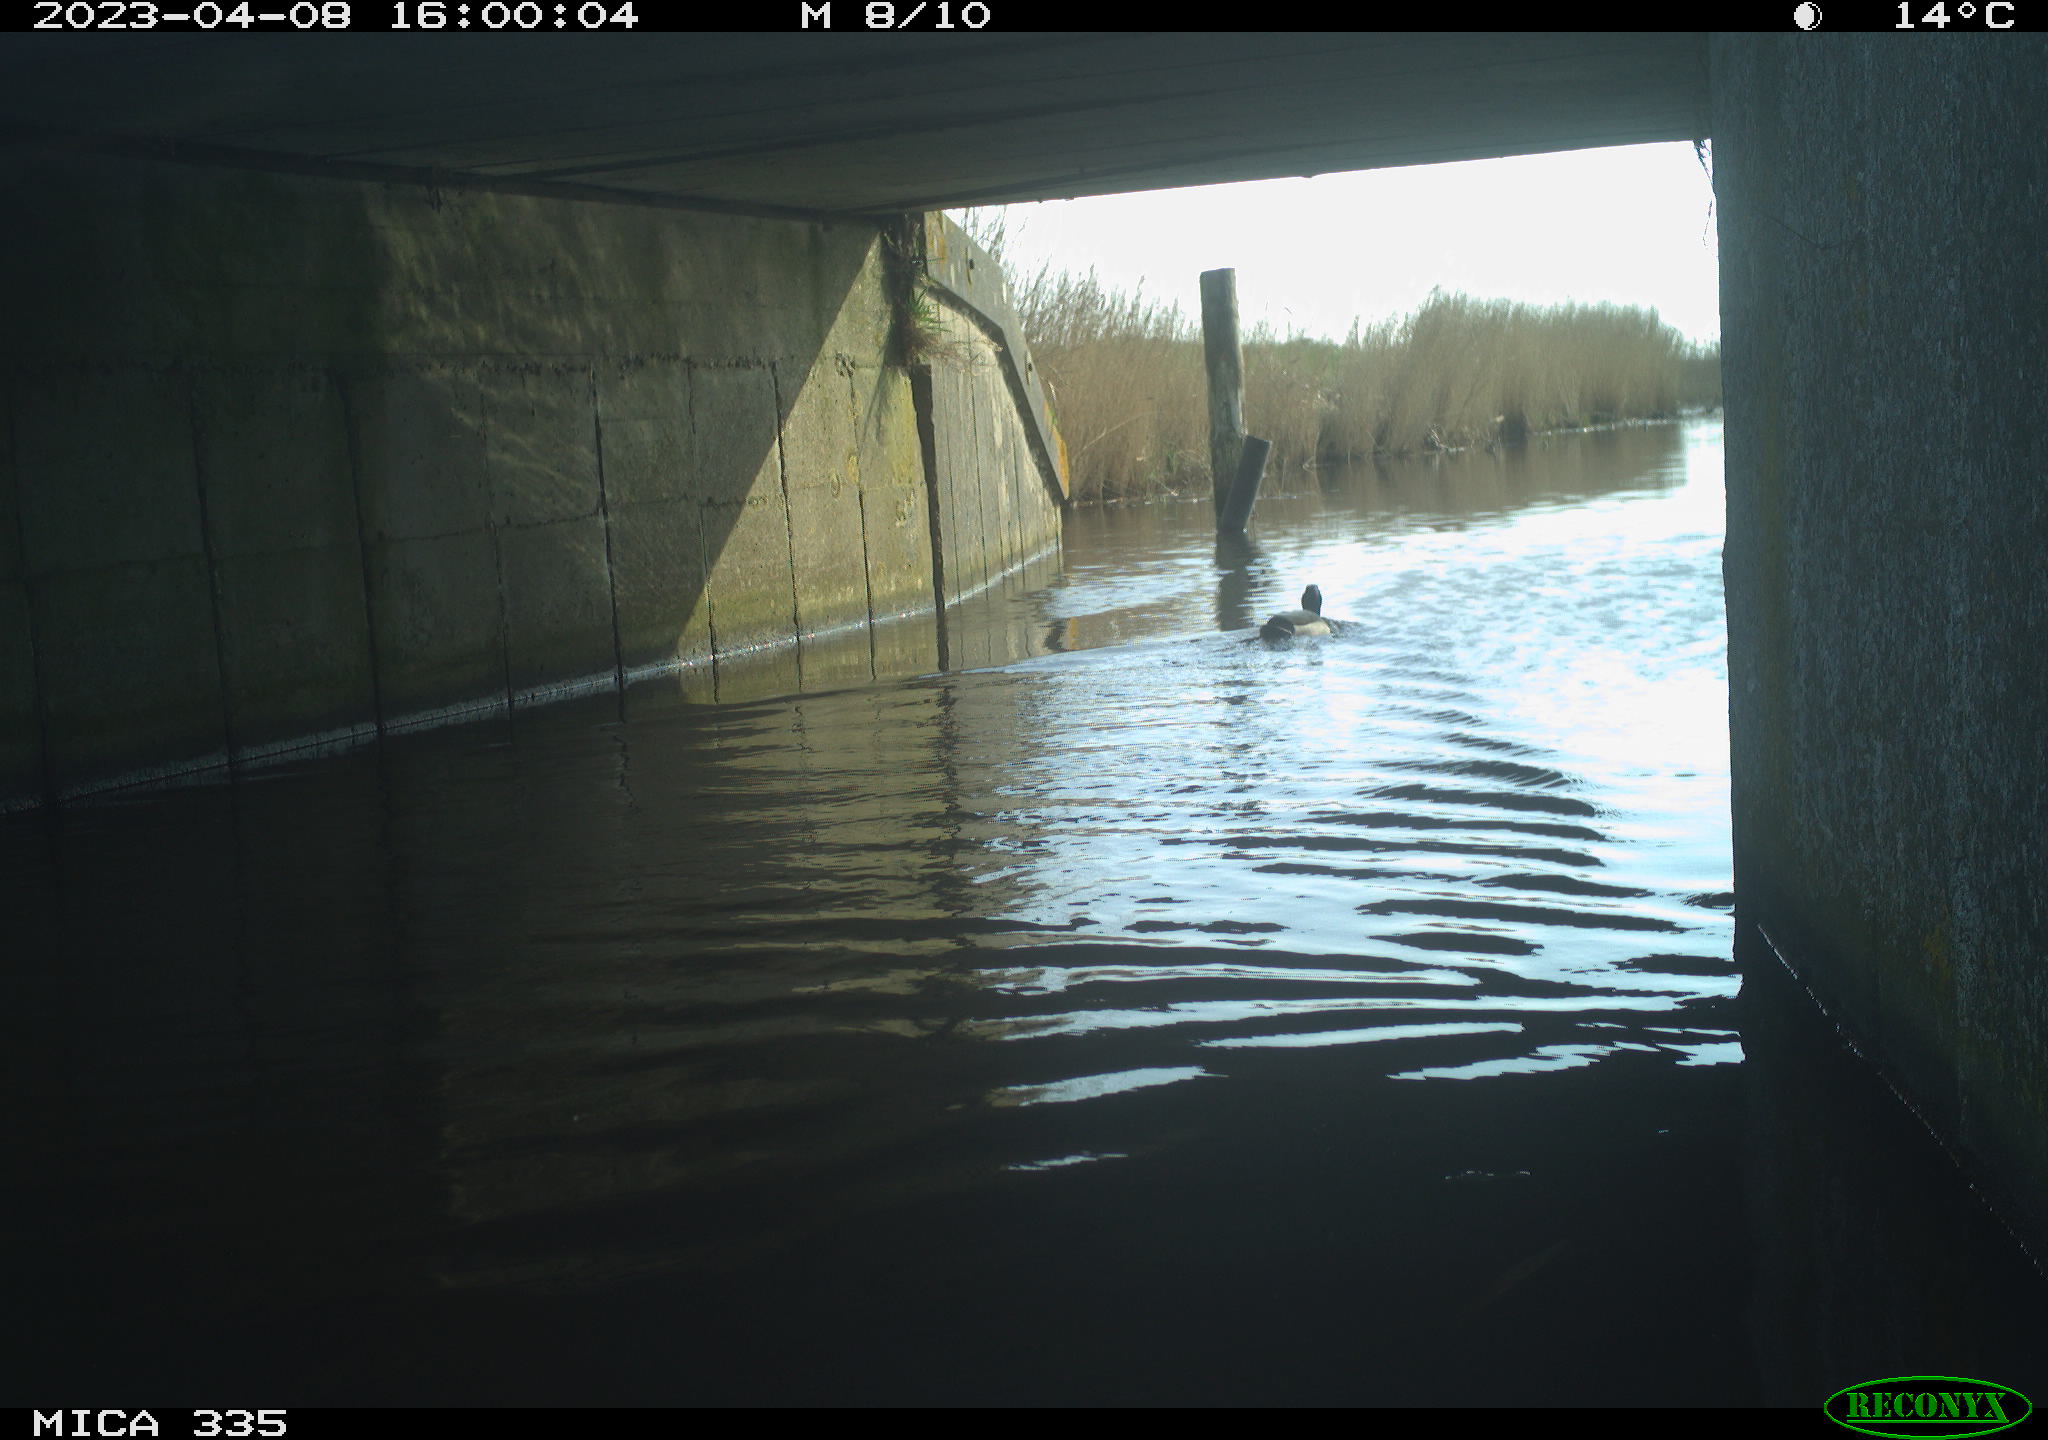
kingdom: Animalia
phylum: Chordata
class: Aves
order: Anseriformes
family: Anatidae
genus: Anas
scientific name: Anas
